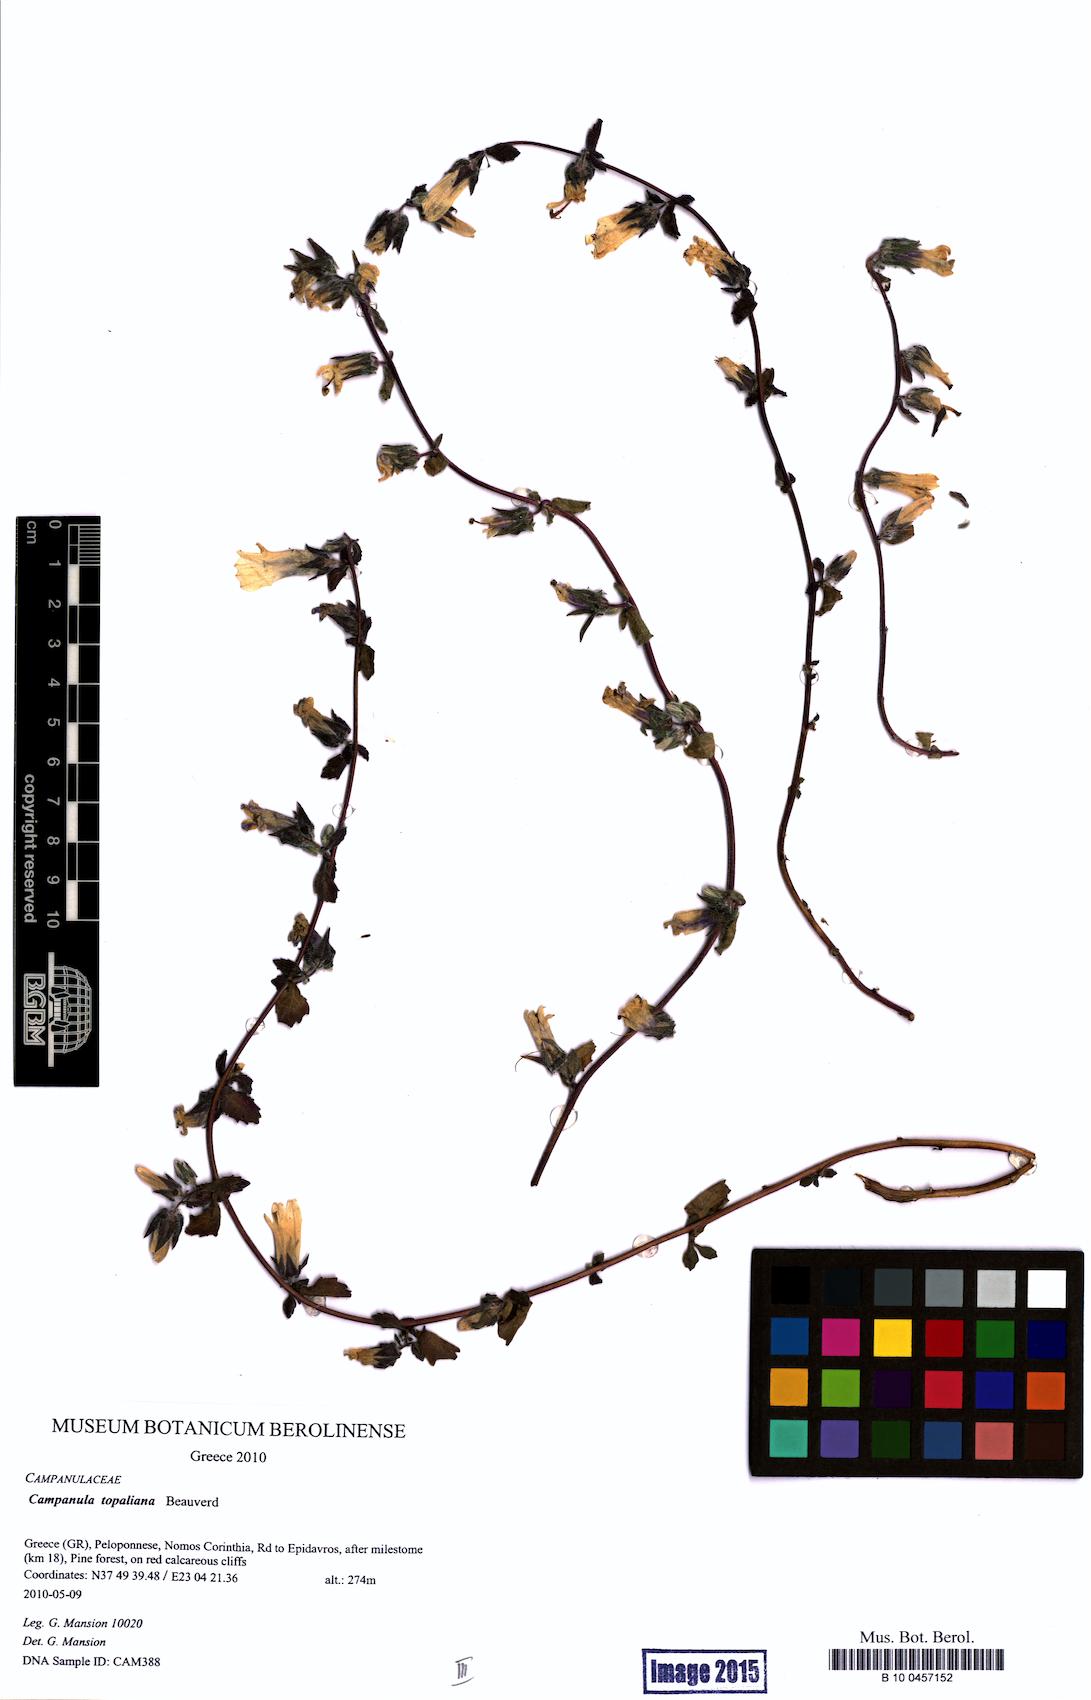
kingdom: Plantae
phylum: Tracheophyta
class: Magnoliopsida
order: Asterales
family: Campanulaceae
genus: Campanula
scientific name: Campanula topaliana
